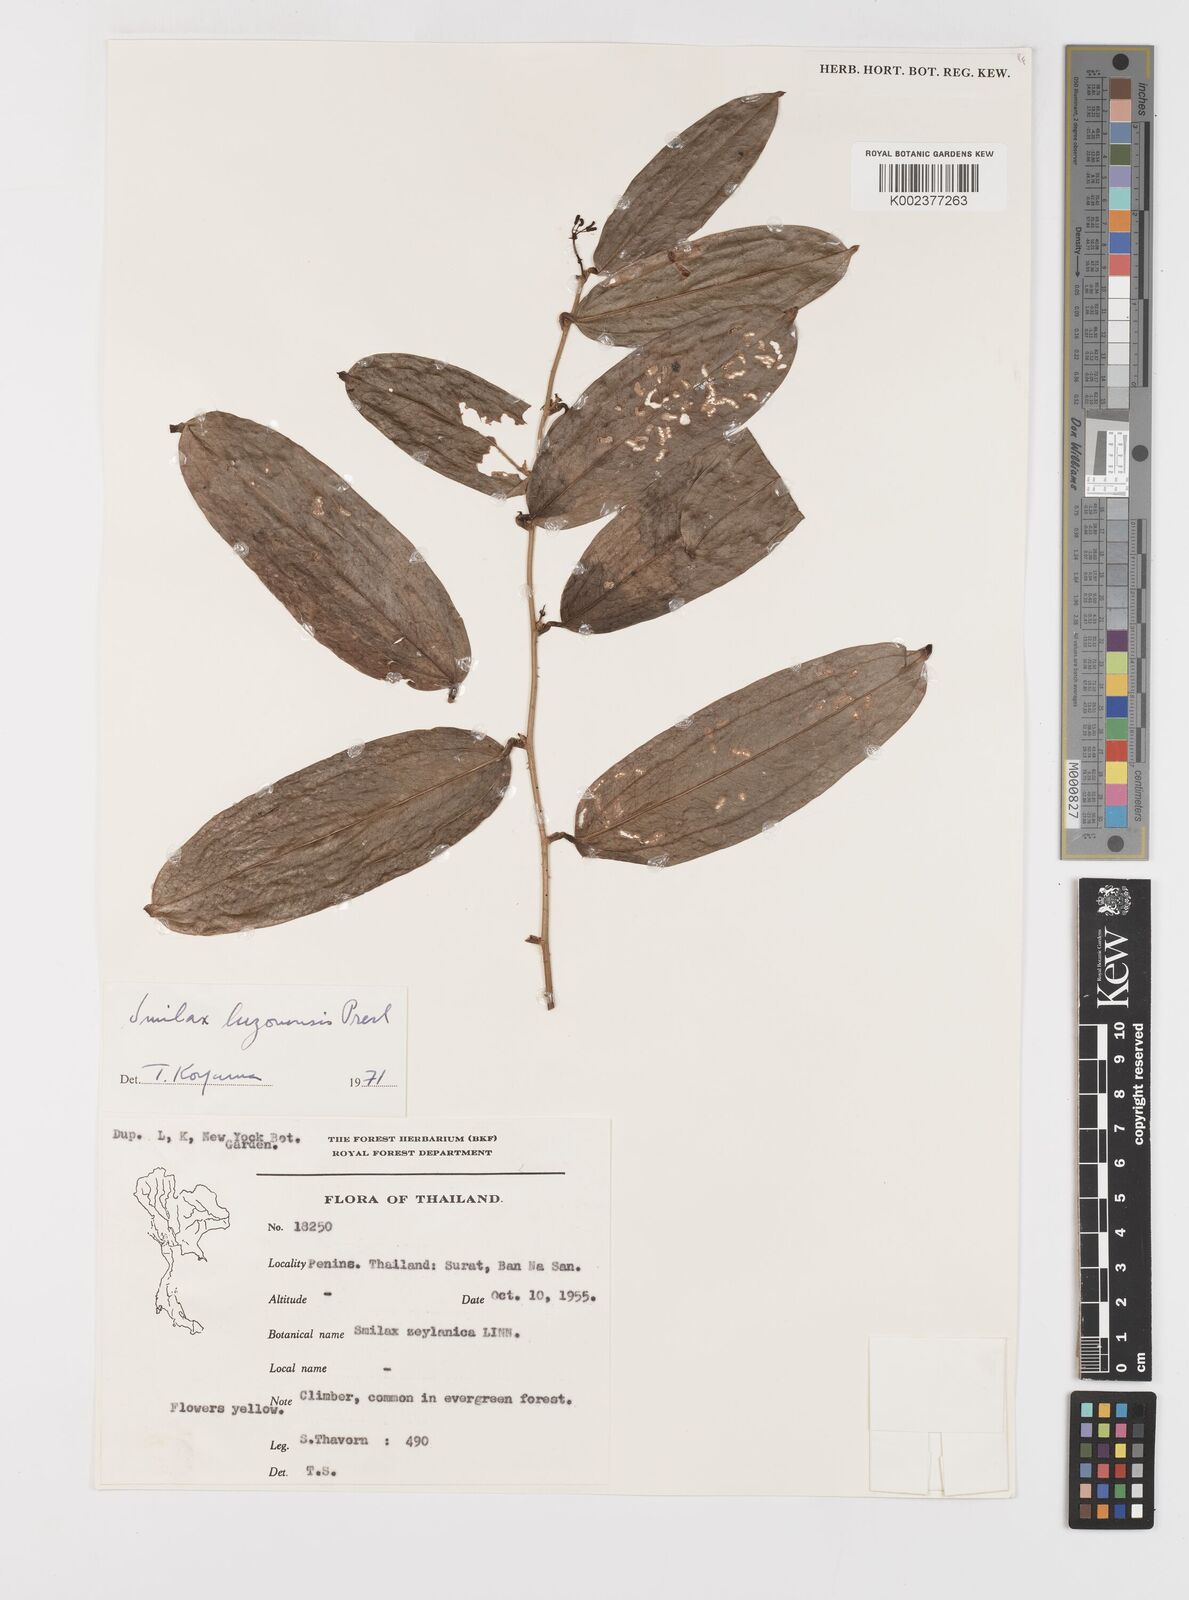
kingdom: Plantae
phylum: Tracheophyta
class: Liliopsida
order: Liliales
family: Smilacaceae
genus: Smilax
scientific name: Smilax luzonensis
